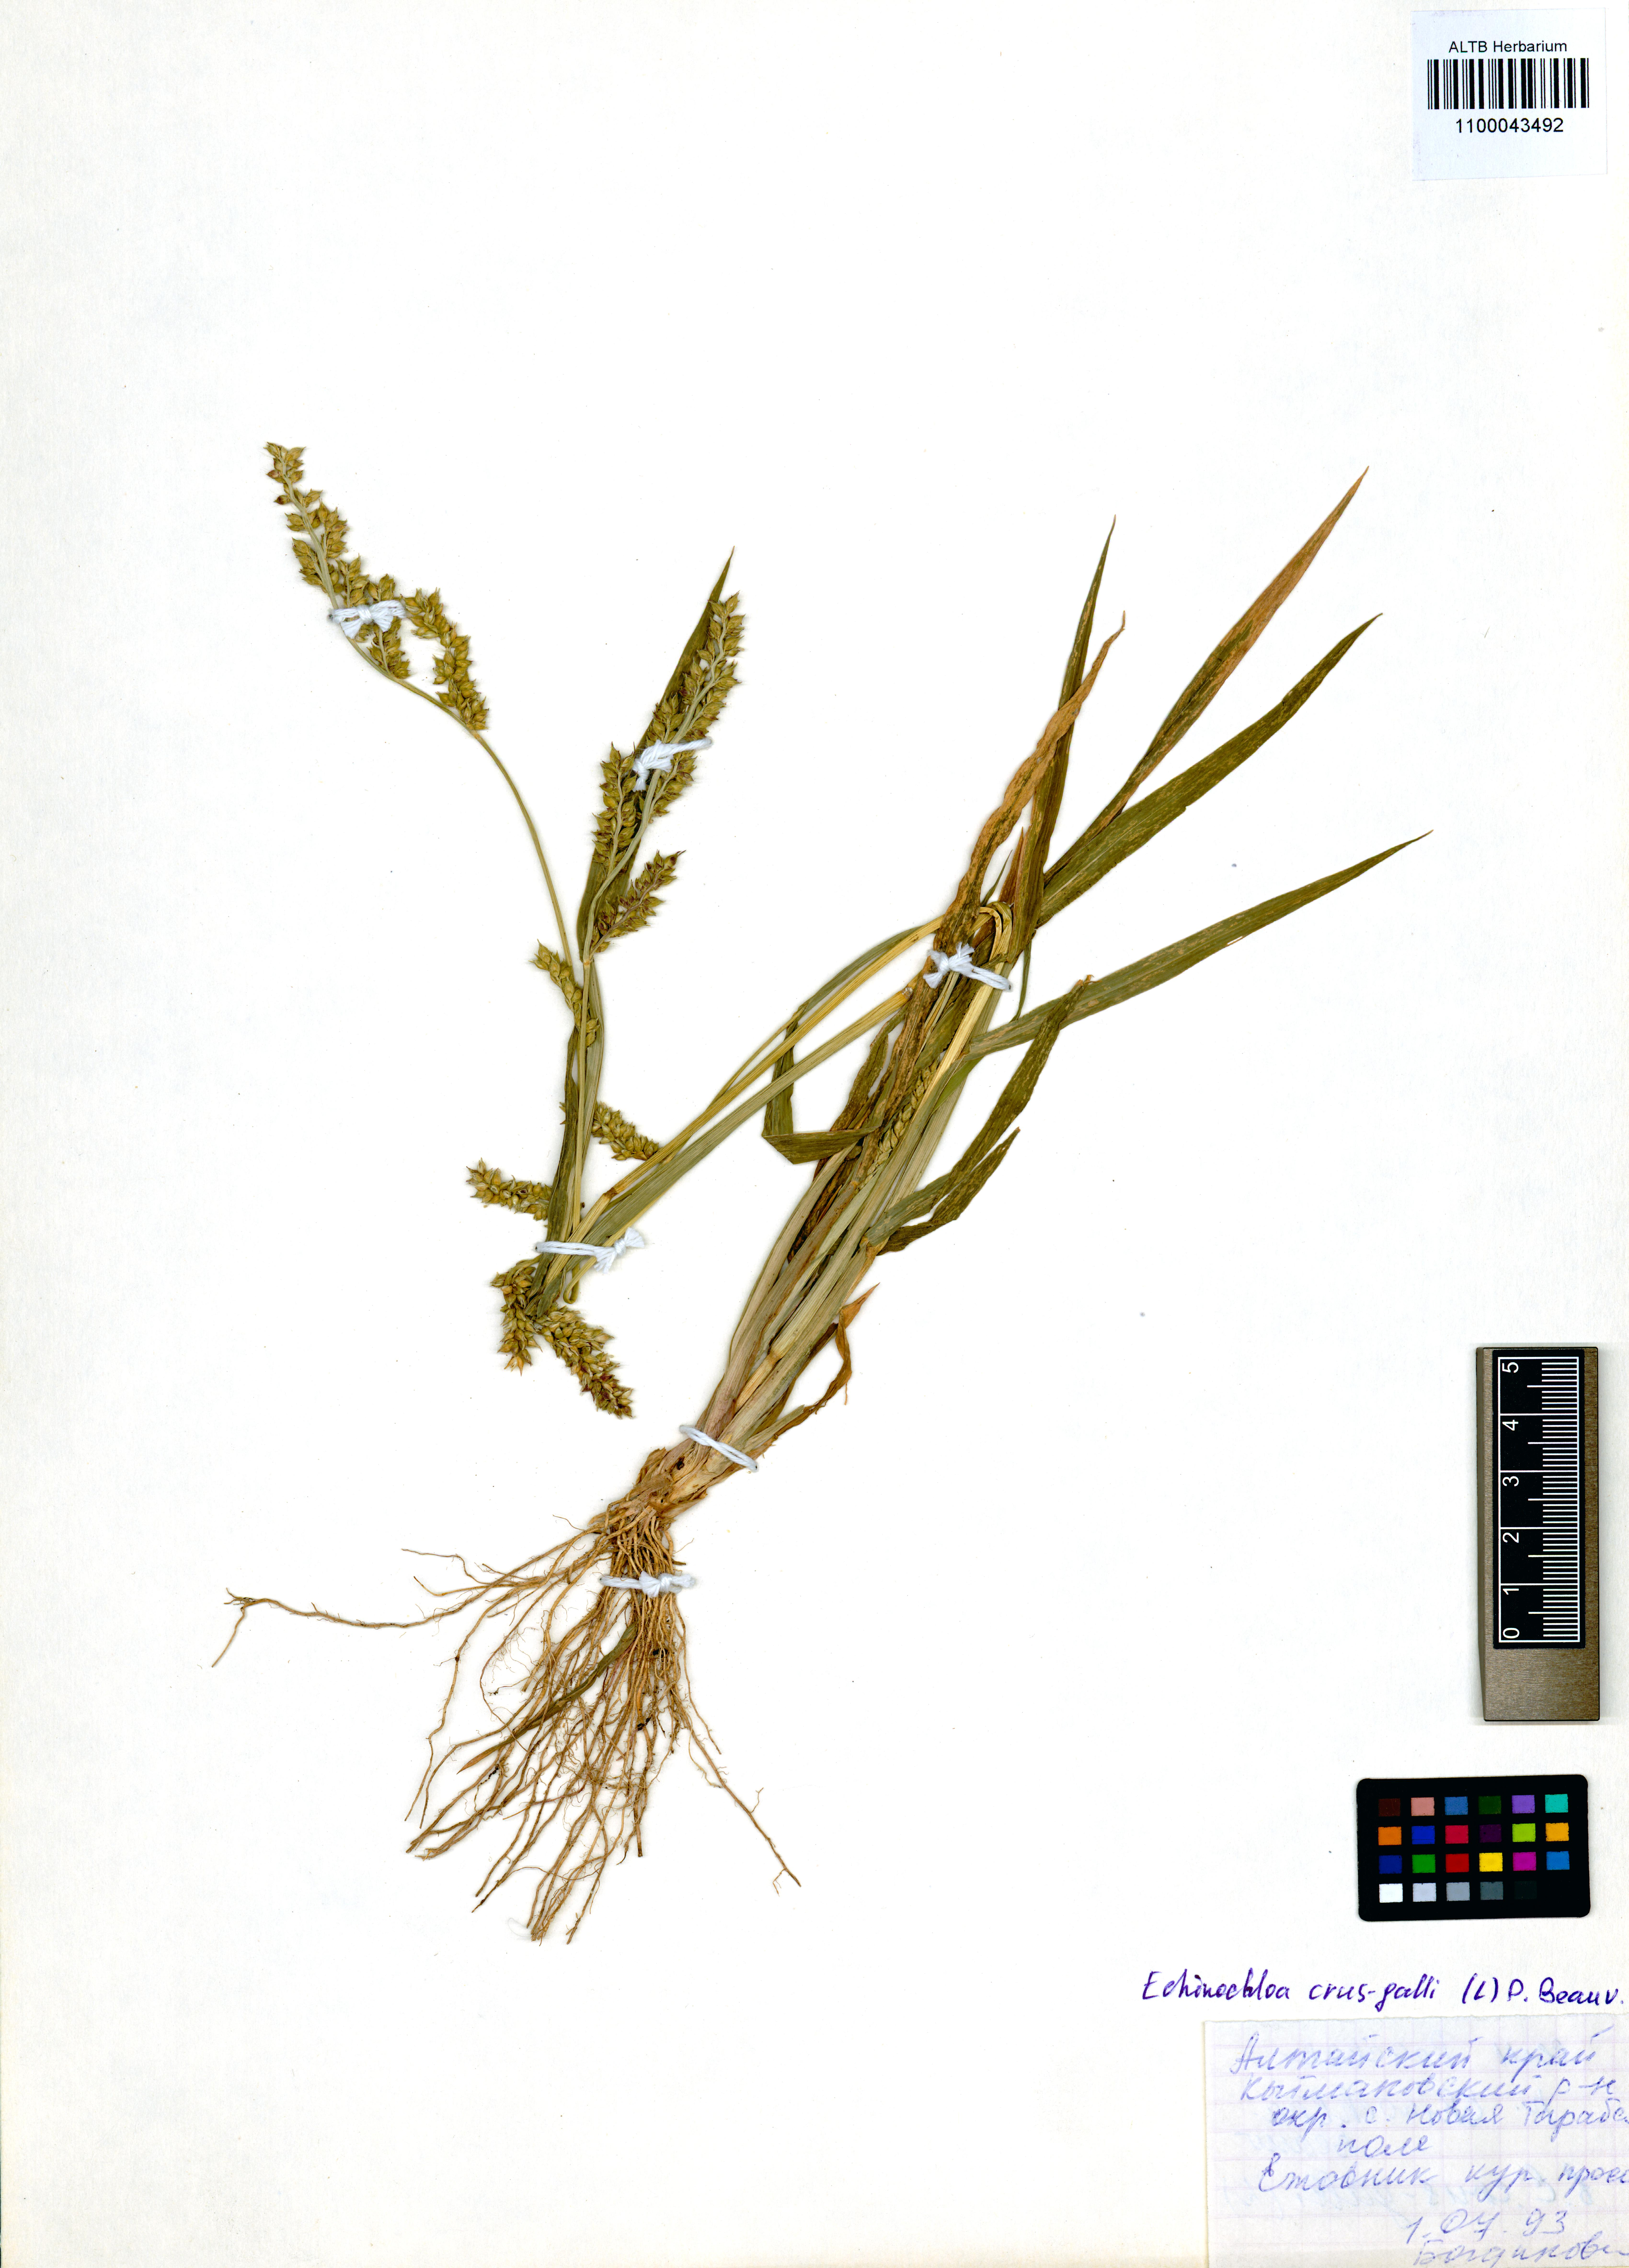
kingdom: Plantae
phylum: Tracheophyta
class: Liliopsida
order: Poales
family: Poaceae
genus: Echinochloa
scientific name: Echinochloa crus-galli
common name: Cockspur
